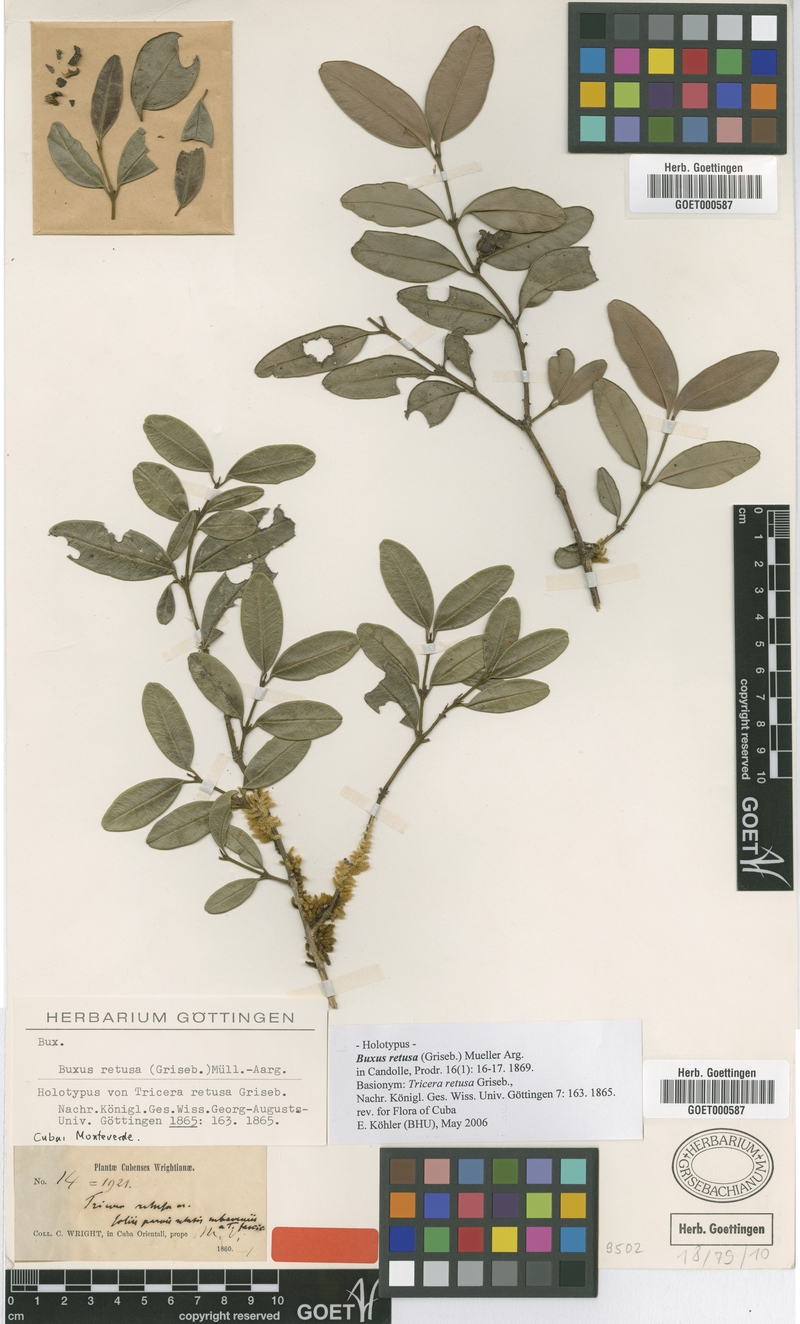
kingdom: Plantae
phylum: Tracheophyta
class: Magnoliopsida
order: Buxales
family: Buxaceae
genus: Buxus
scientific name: Buxus retusa
